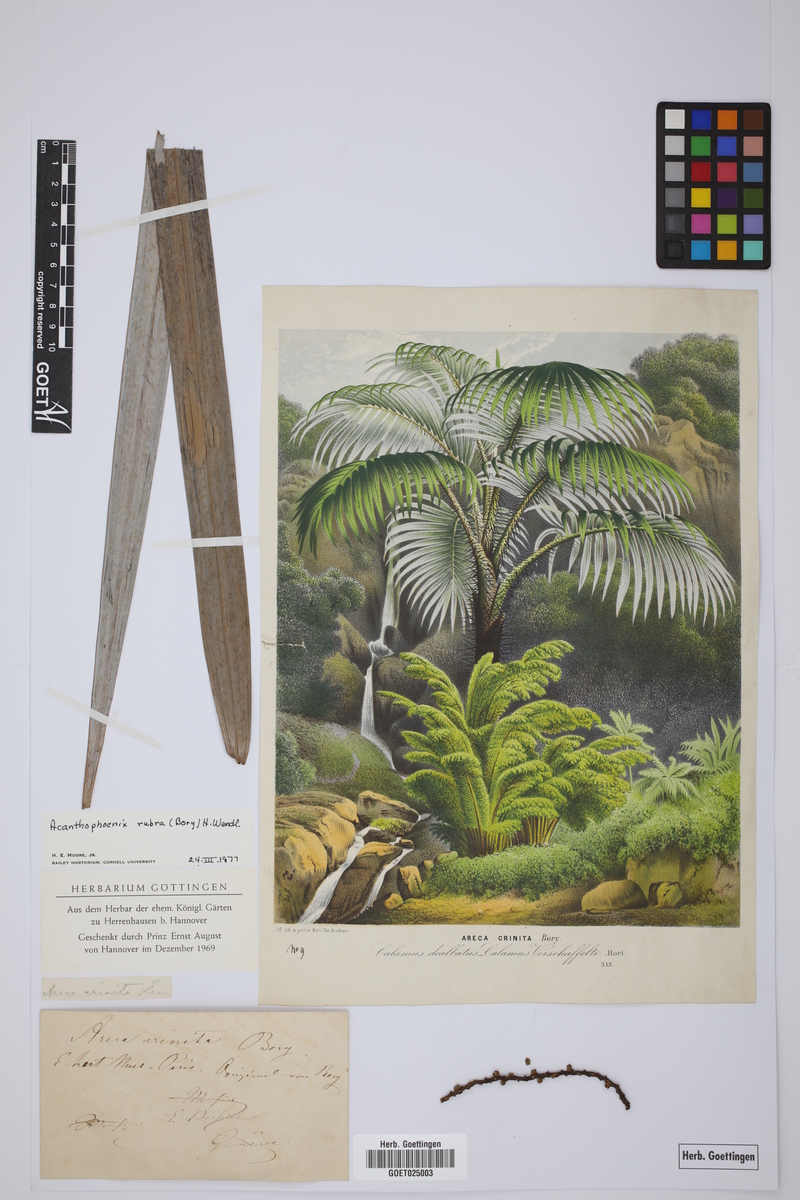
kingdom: Plantae
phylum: Tracheophyta
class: Liliopsida
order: Arecales
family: Arecaceae
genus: Acanthophoenix
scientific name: Acanthophoenix rubra
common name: Barbel palm
